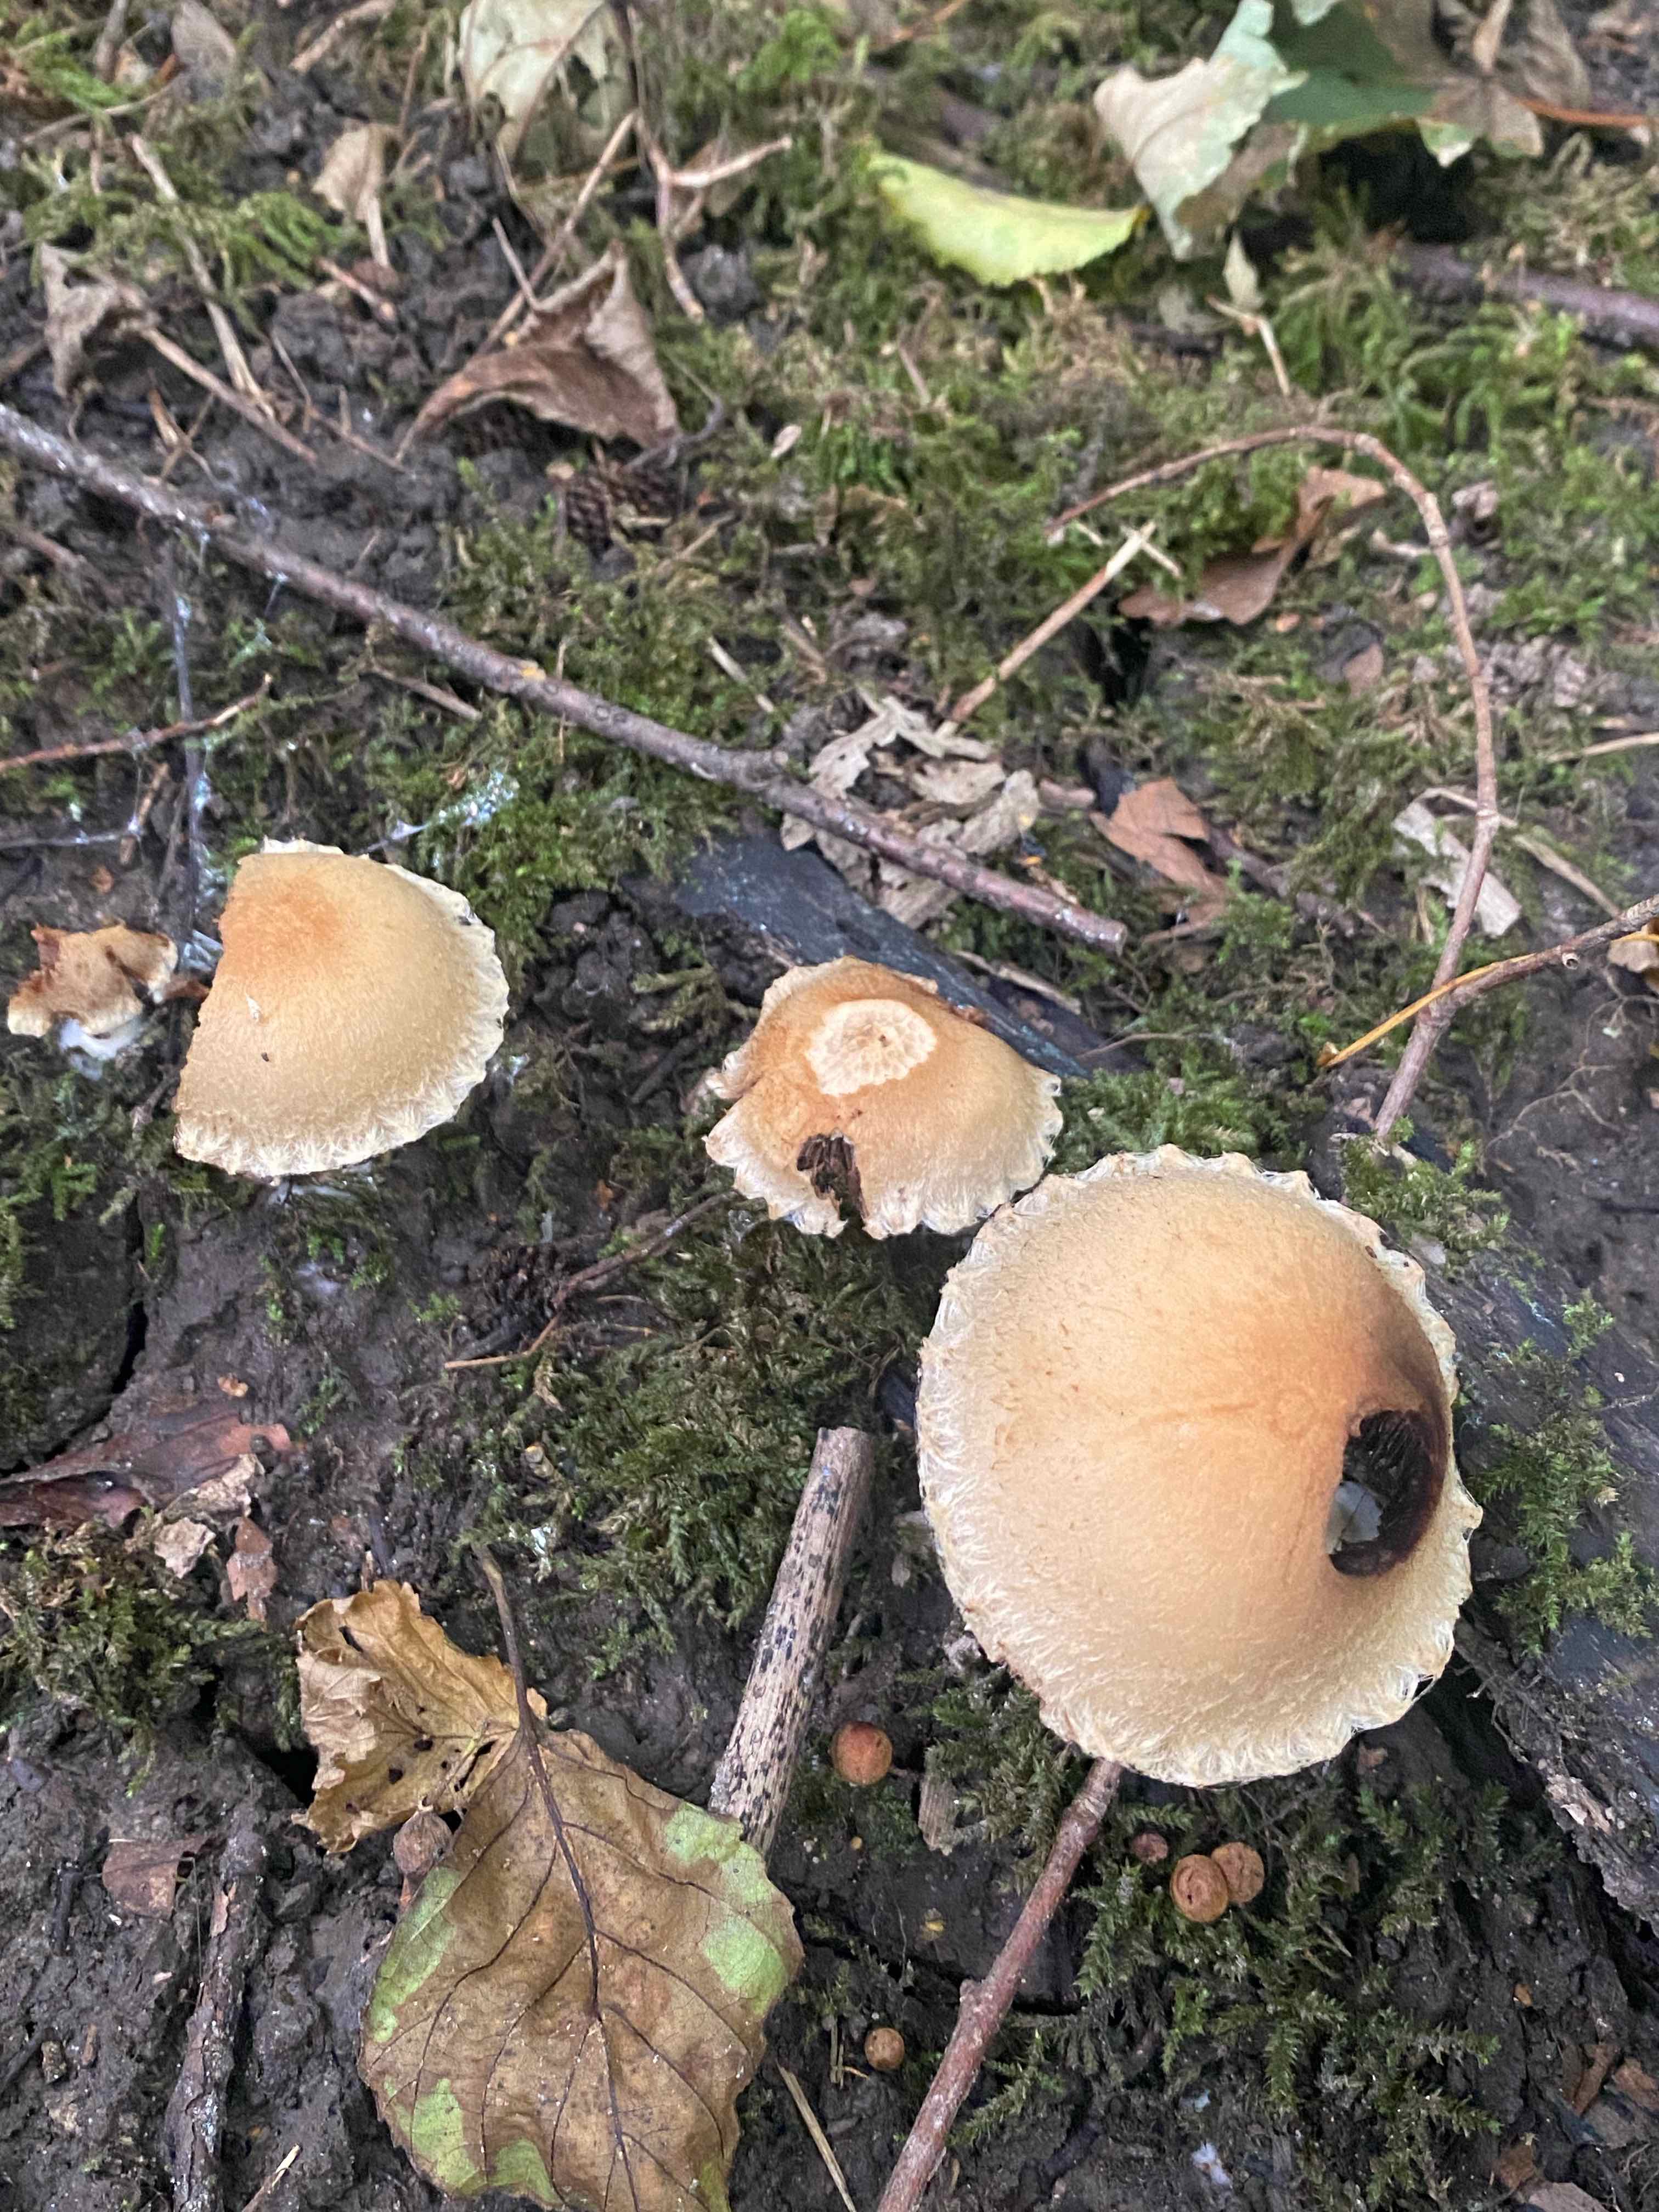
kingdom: Fungi
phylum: Basidiomycota
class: Agaricomycetes
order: Agaricales
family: Psathyrellaceae
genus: Lacrymaria
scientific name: Lacrymaria lacrymabunda
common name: grædende mørkhat
